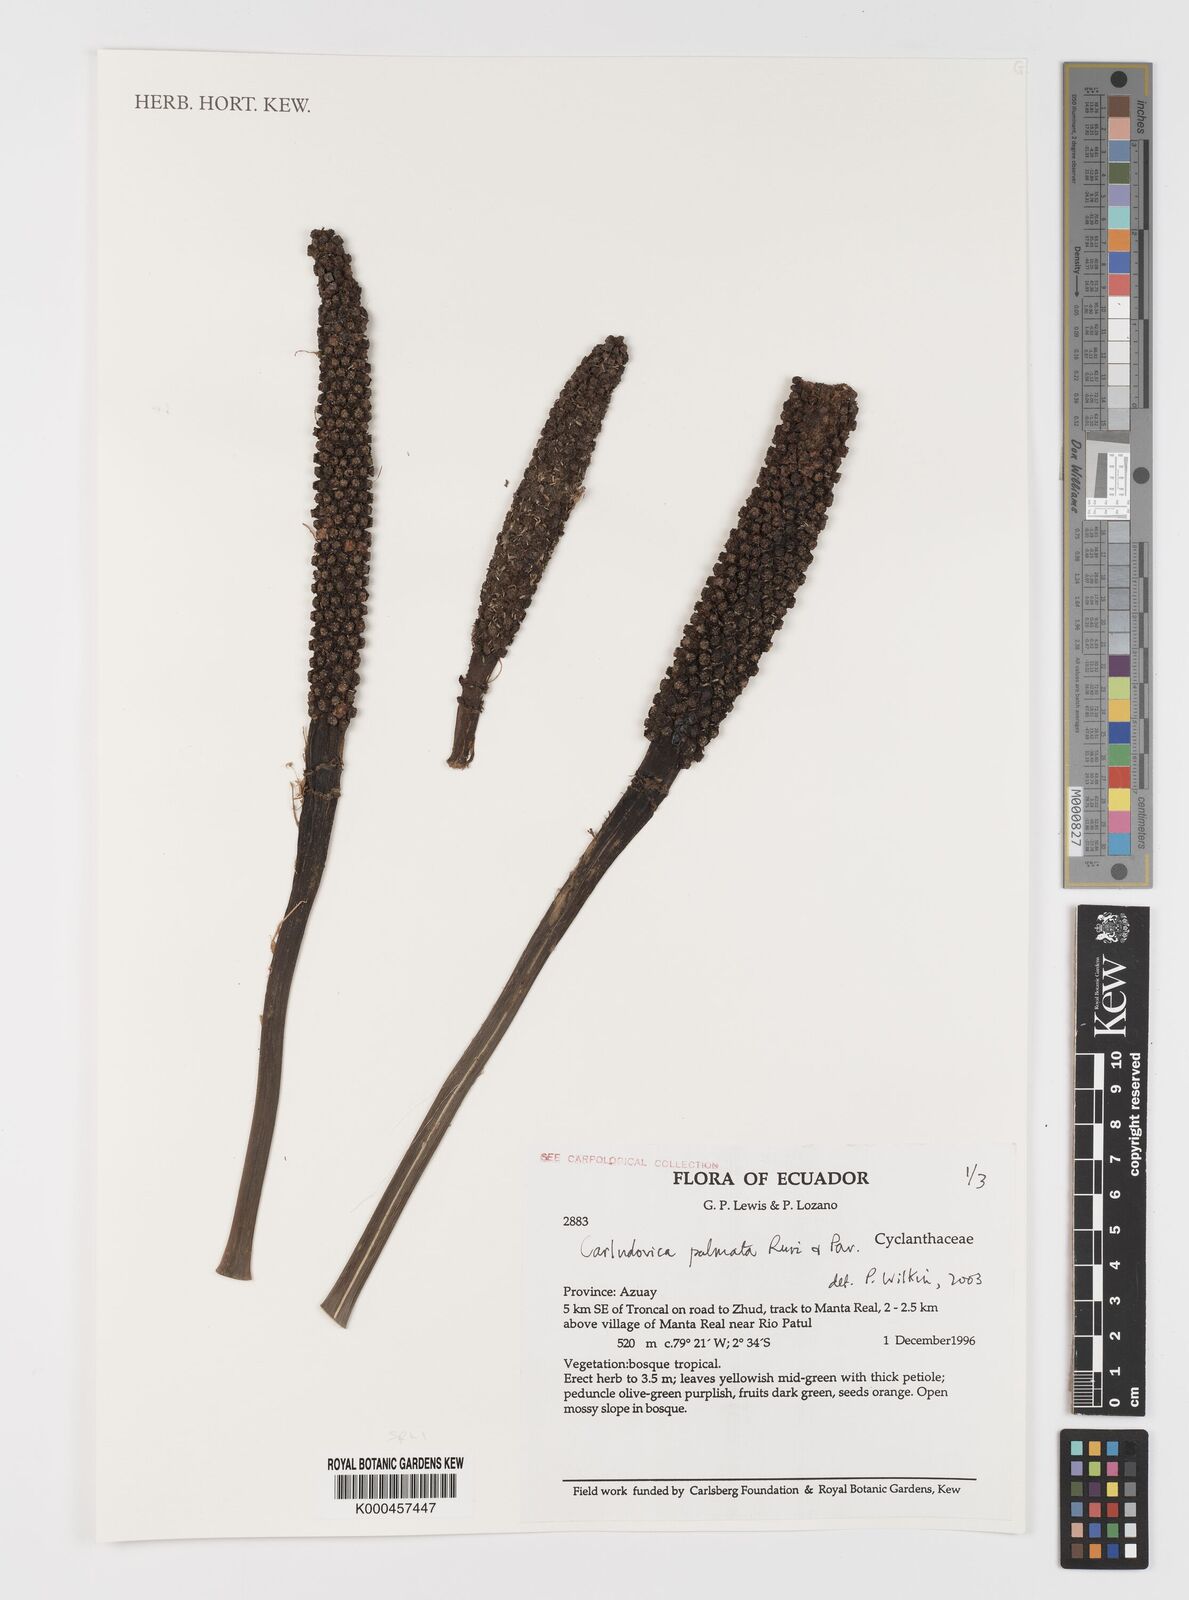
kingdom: Plantae
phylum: Tracheophyta
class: Liliopsida
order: Pandanales
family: Cyclanthaceae
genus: Carludovica
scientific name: Carludovica palmata
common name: Panama hat plant
